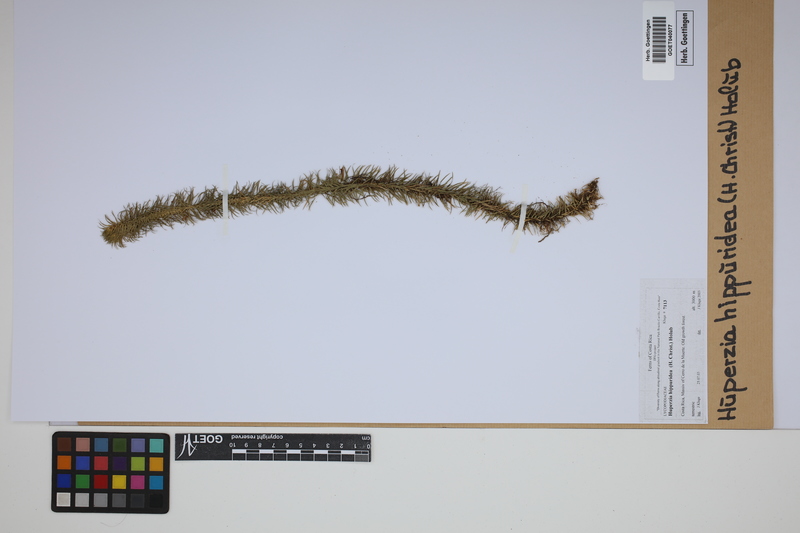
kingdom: Plantae
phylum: Tracheophyta
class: Lycopodiopsida
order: Lycopodiales
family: Lycopodiaceae
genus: Phlegmariurus
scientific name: Phlegmariurus hippurideus
